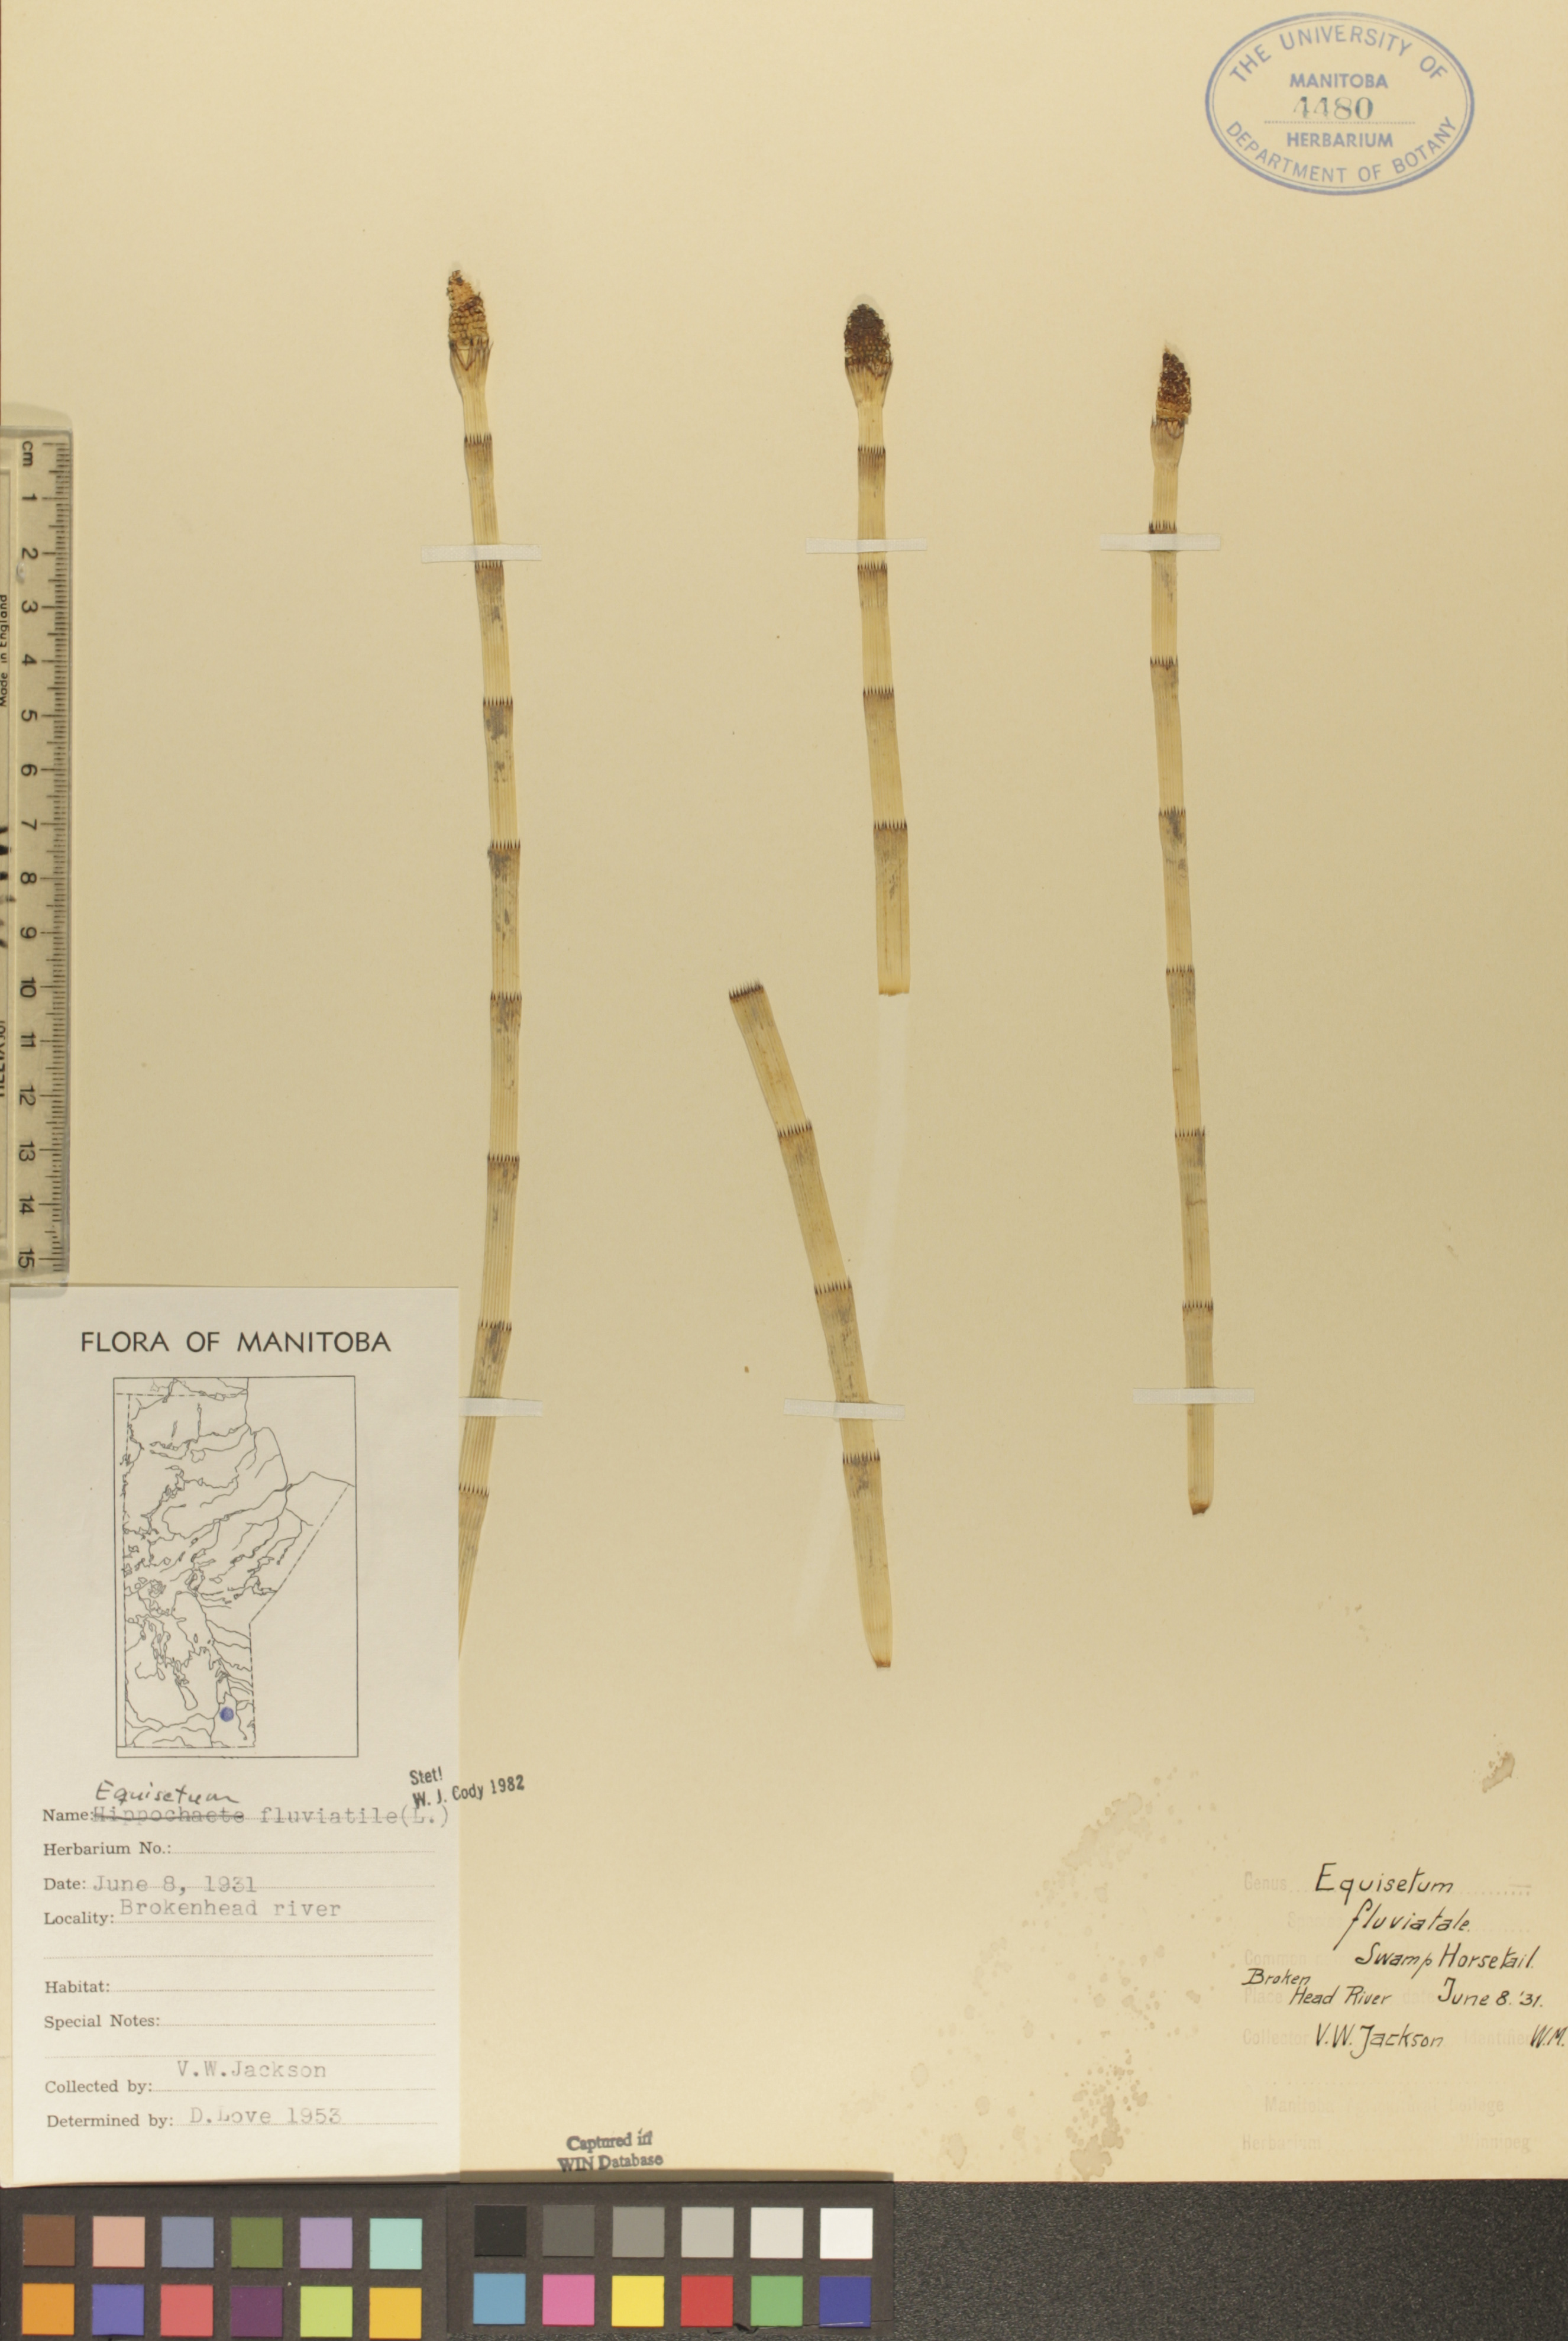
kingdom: Plantae
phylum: Tracheophyta
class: Polypodiopsida
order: Equisetales
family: Equisetaceae
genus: Equisetum
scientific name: Equisetum fluviatile
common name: Water horsetail
